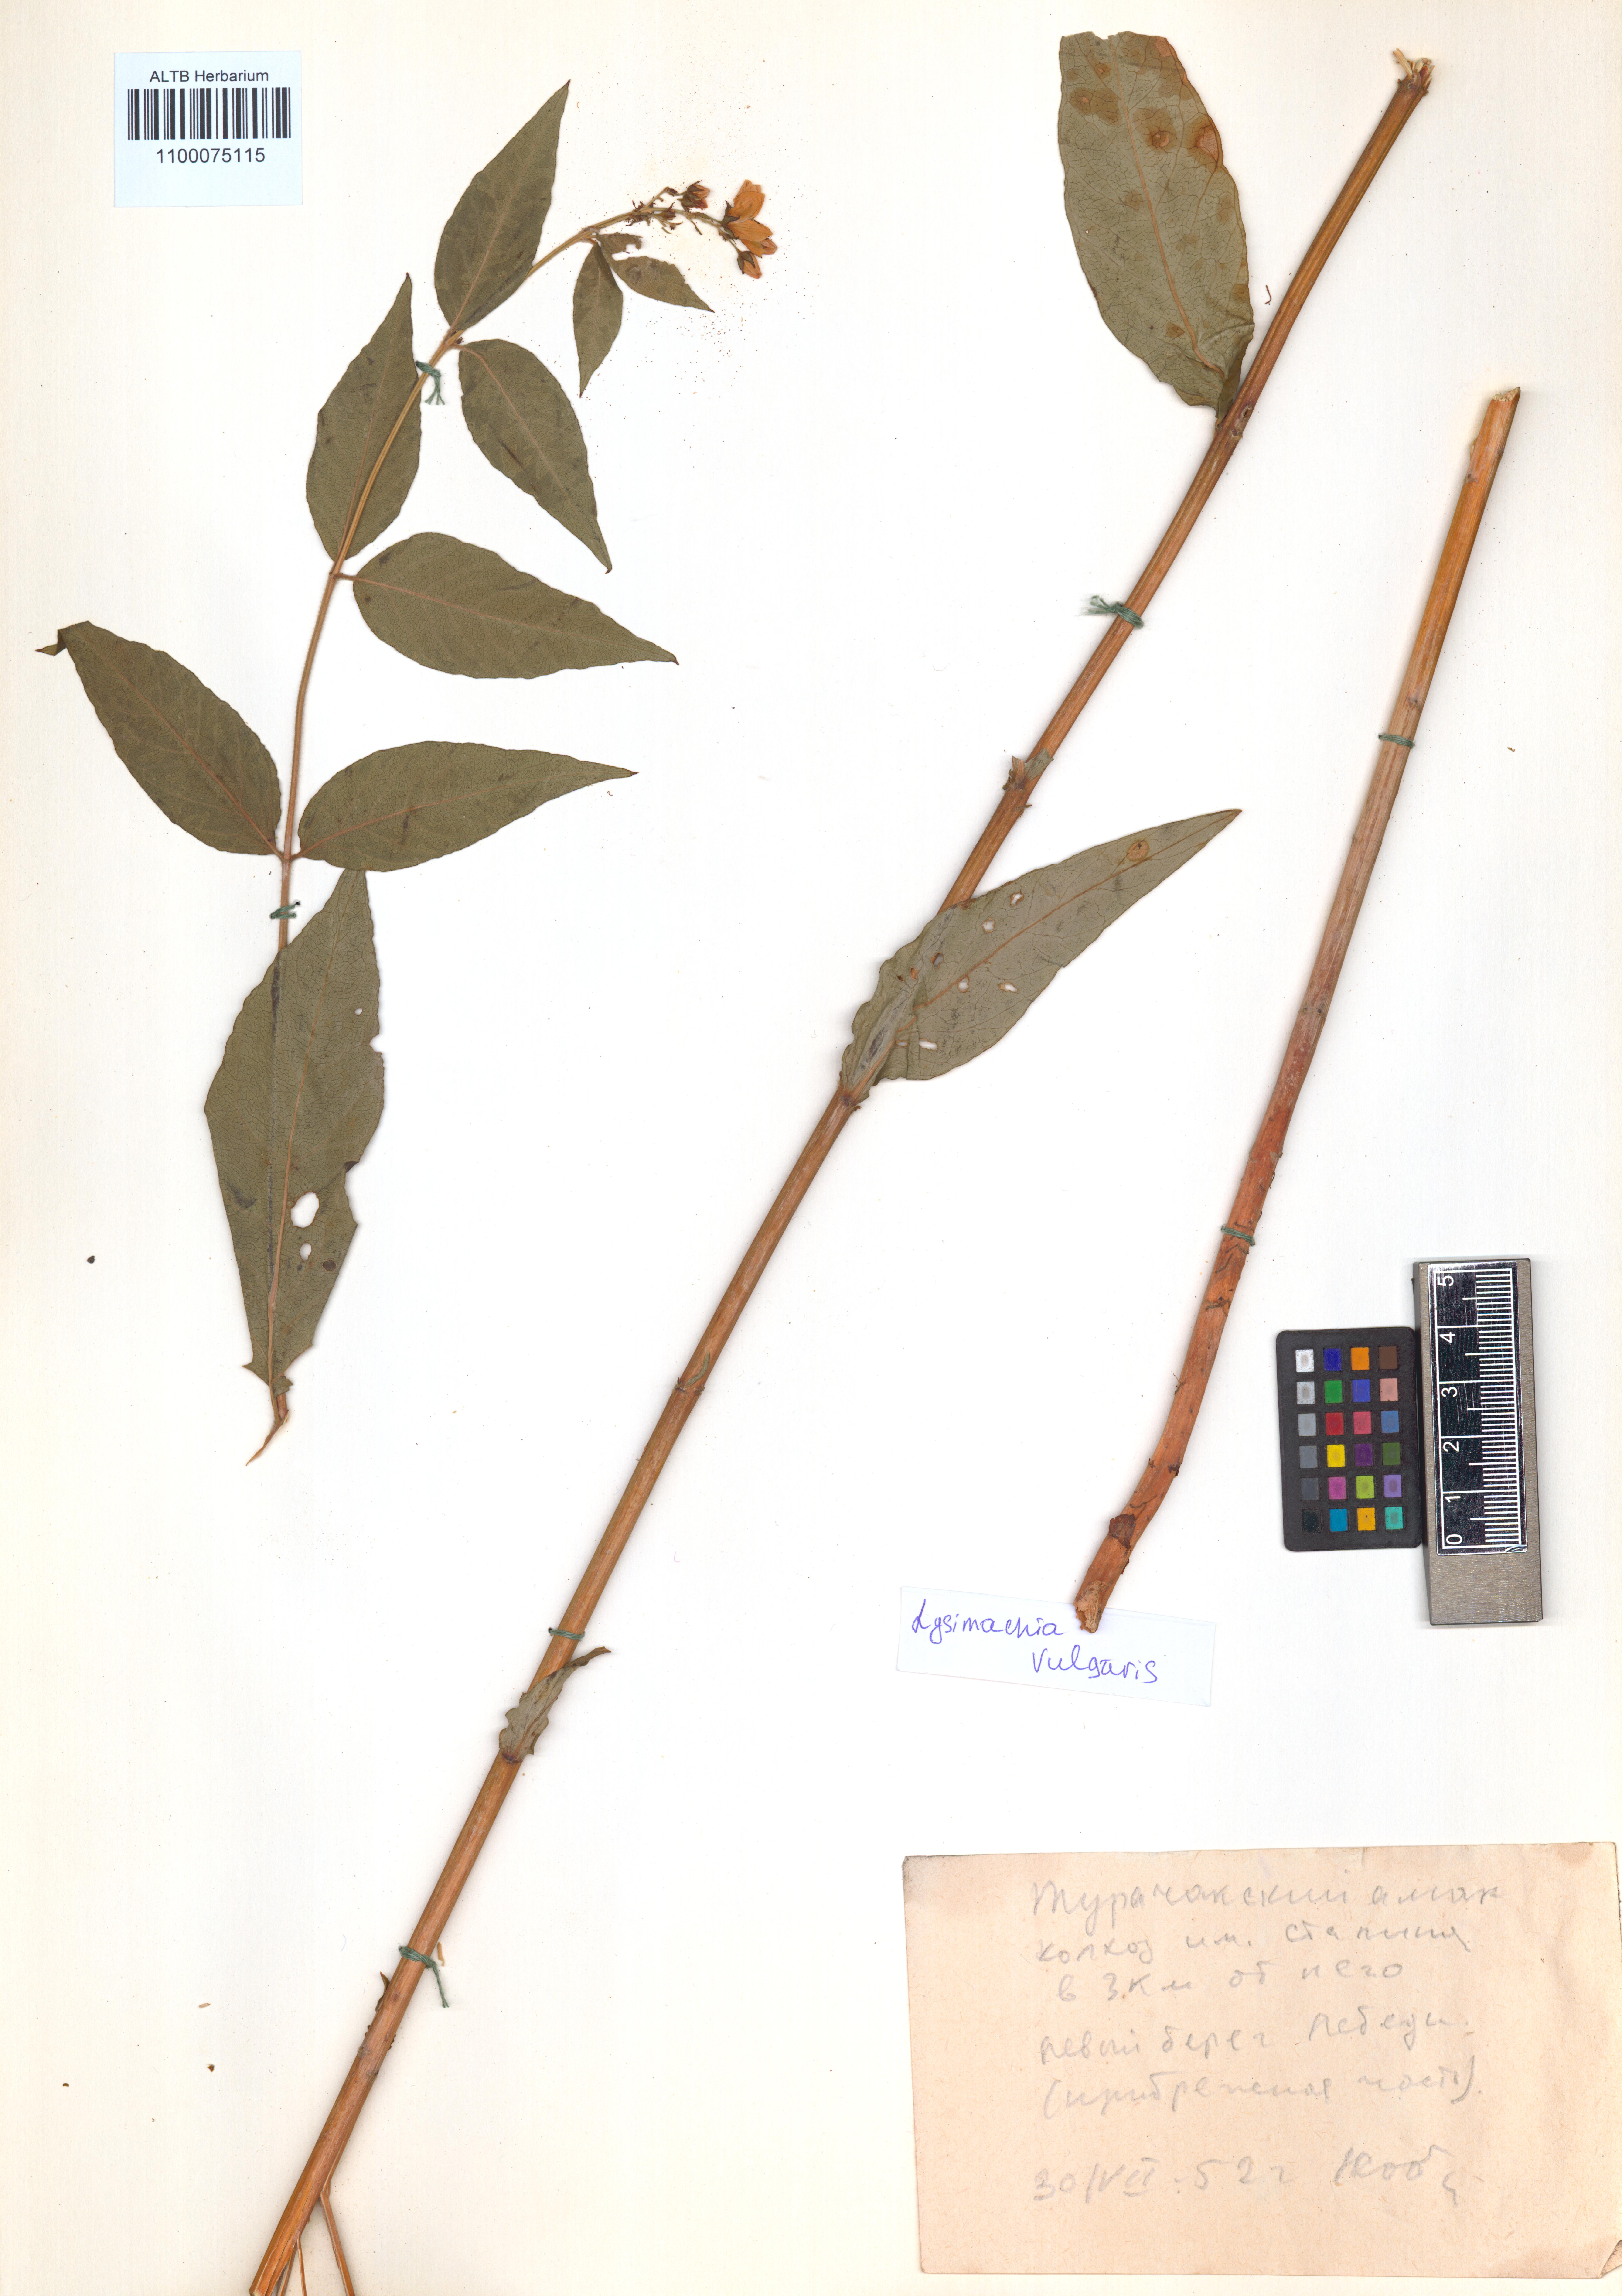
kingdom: Plantae
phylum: Tracheophyta
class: Magnoliopsida
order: Ericales
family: Primulaceae
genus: Lysimachia
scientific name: Lysimachia vulgaris
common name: Yellow loosestrife
